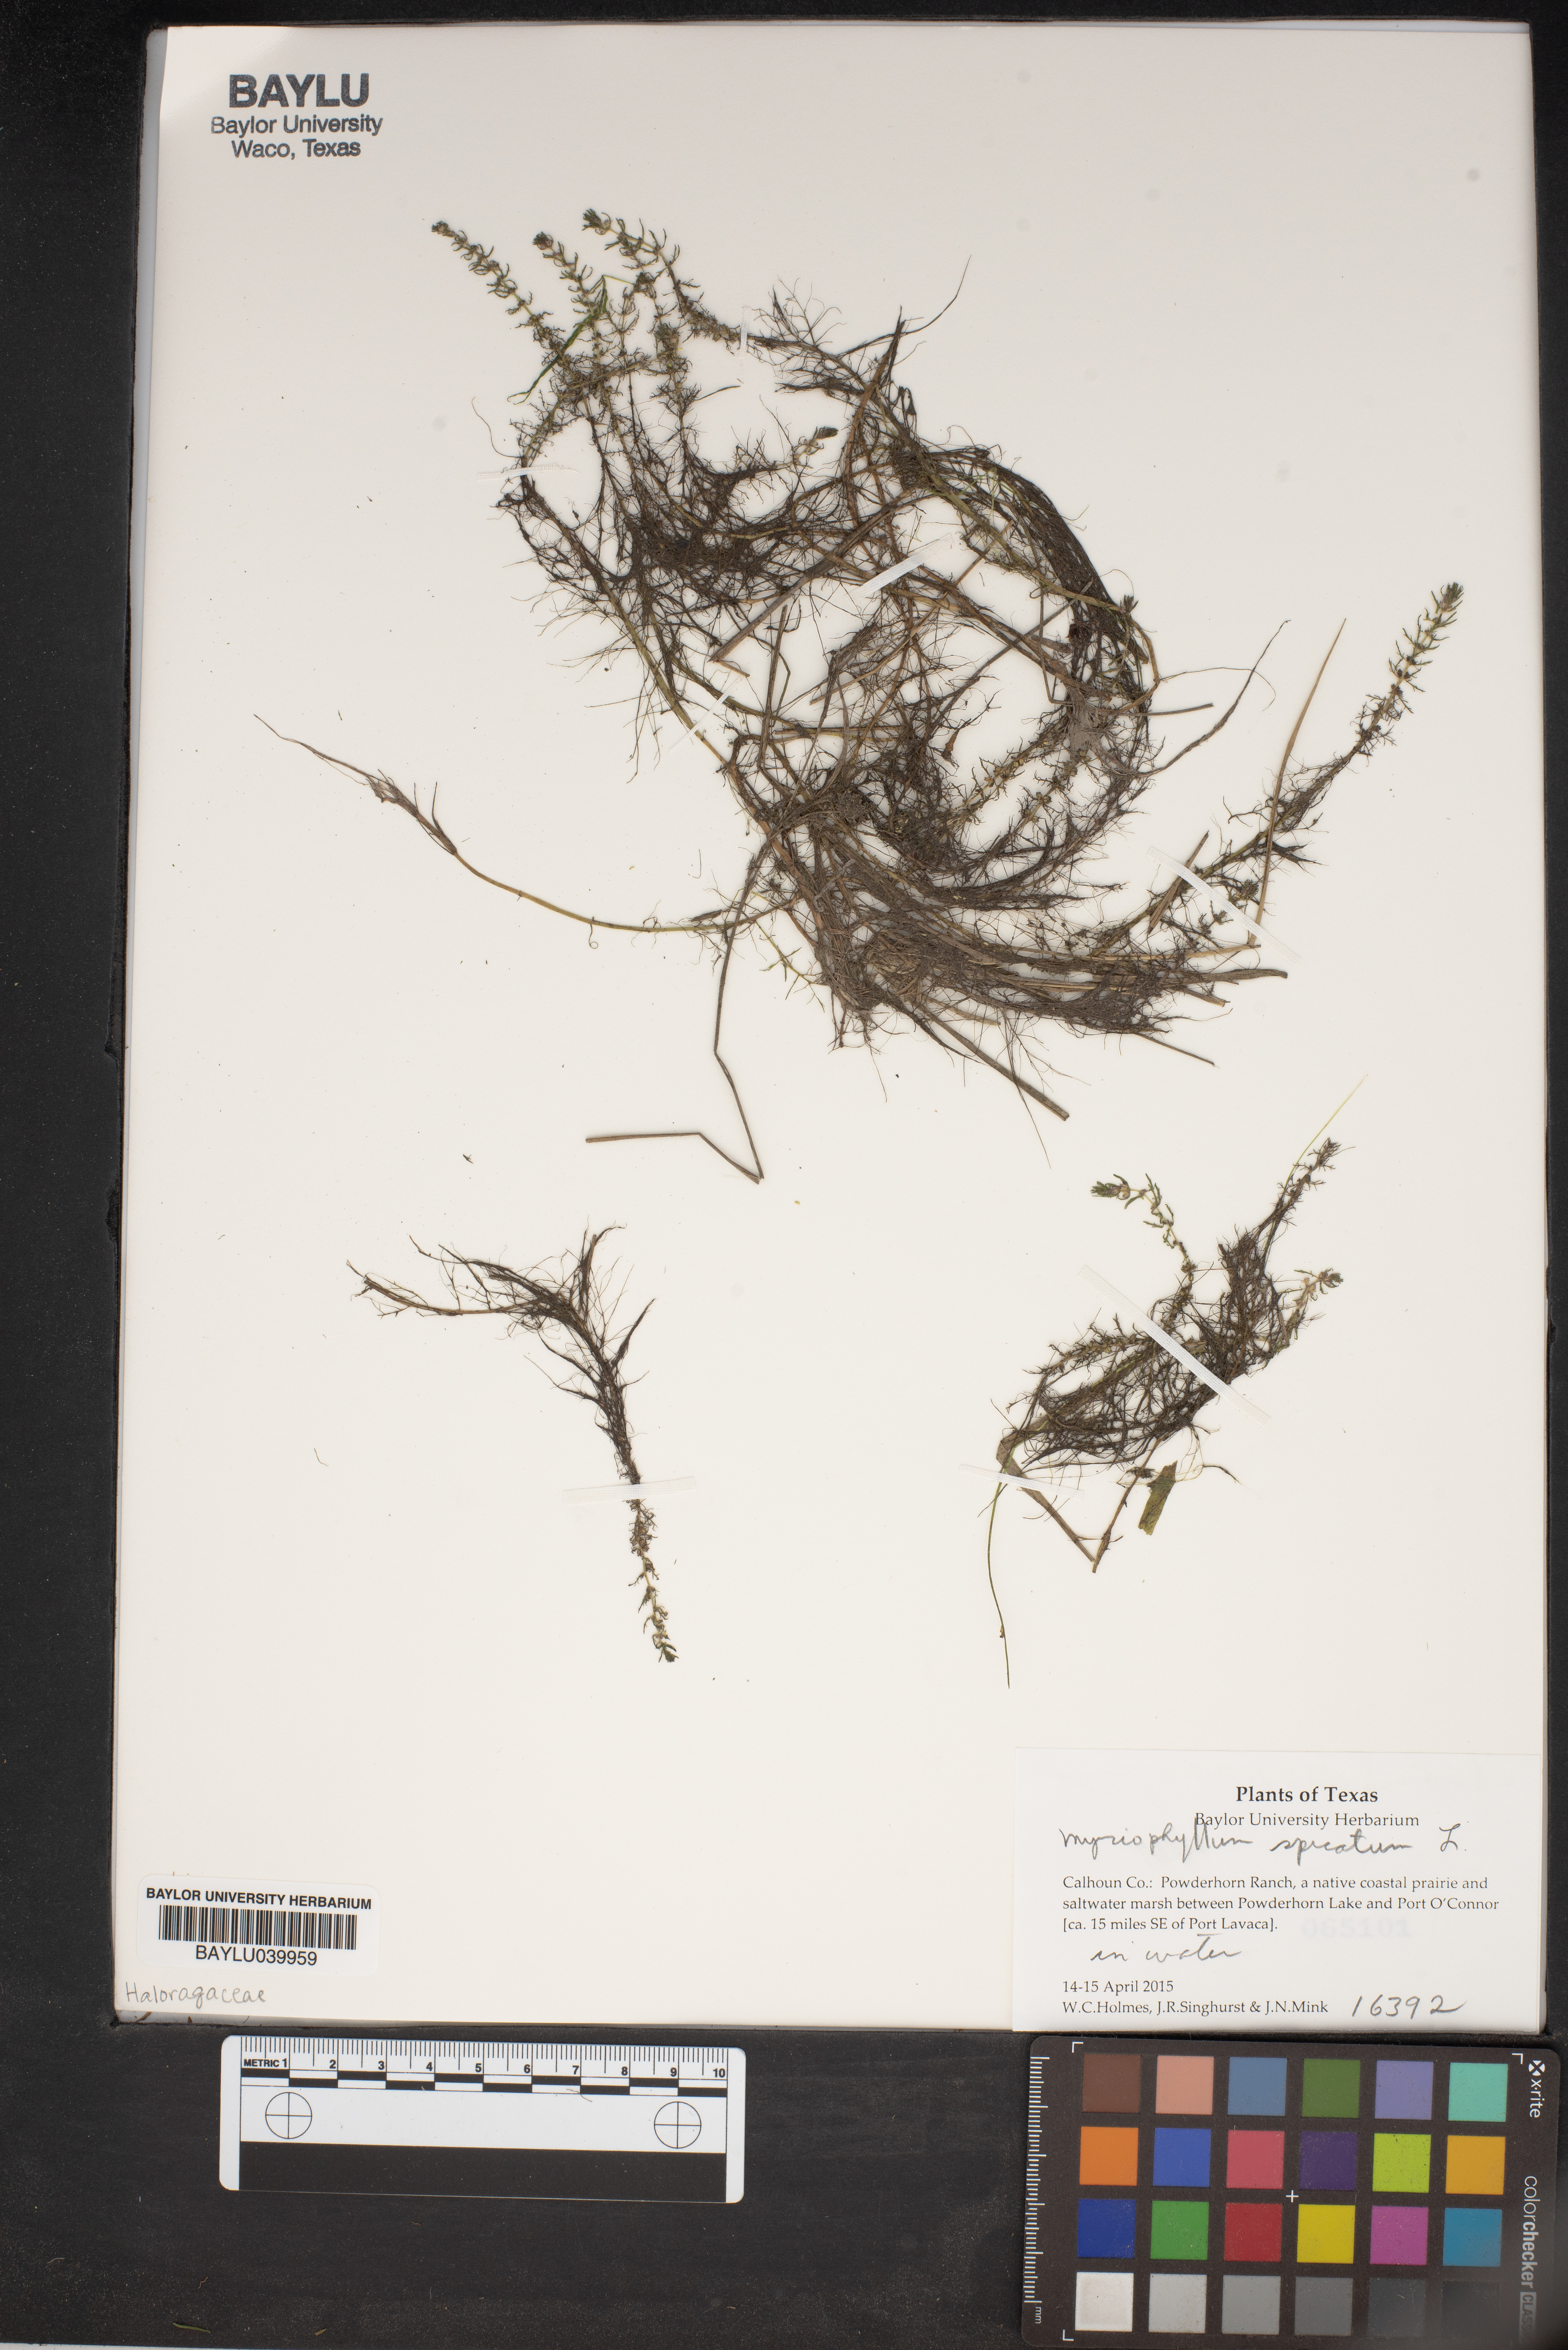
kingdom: Plantae
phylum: Tracheophyta
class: Magnoliopsida
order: Saxifragales
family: Haloragaceae
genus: Myriophyllum
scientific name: Myriophyllum spicatum
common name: Spiked water-milfoil
